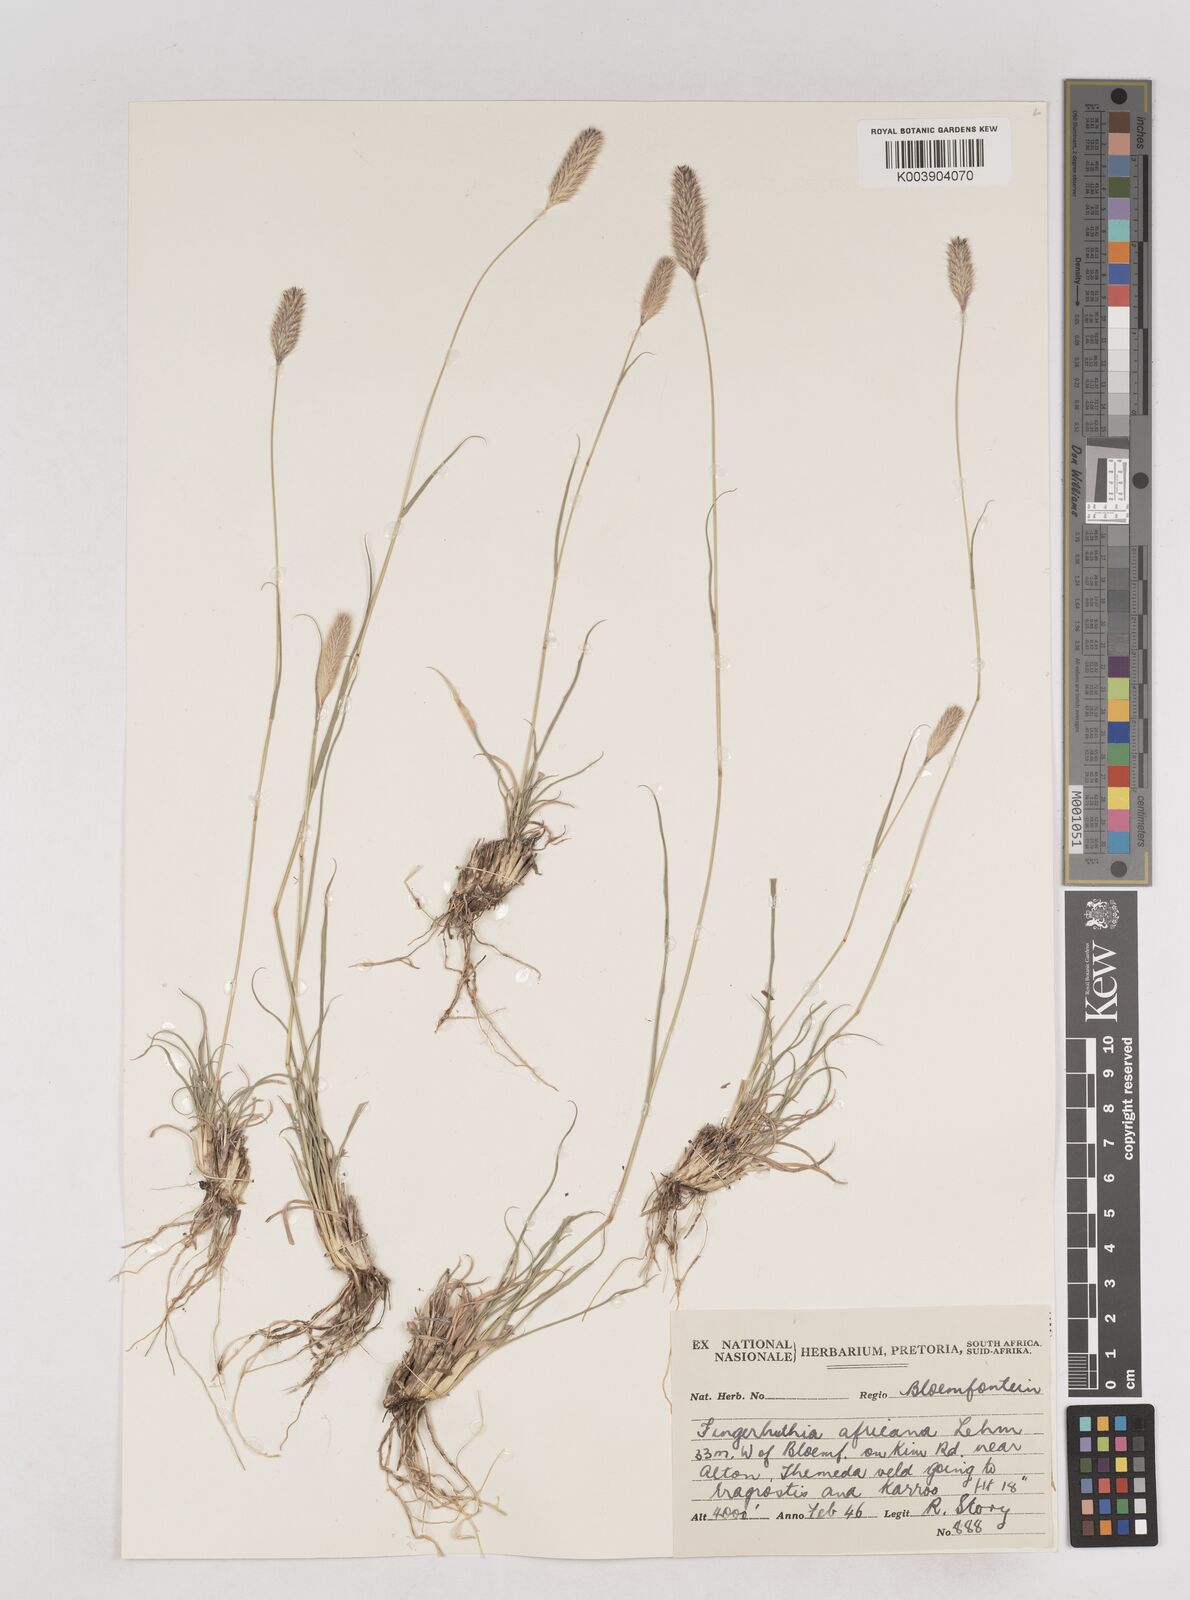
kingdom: Plantae
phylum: Tracheophyta
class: Liliopsida
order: Poales
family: Poaceae
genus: Fingerhuthia
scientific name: Fingerhuthia africana
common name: Zulu fescue
